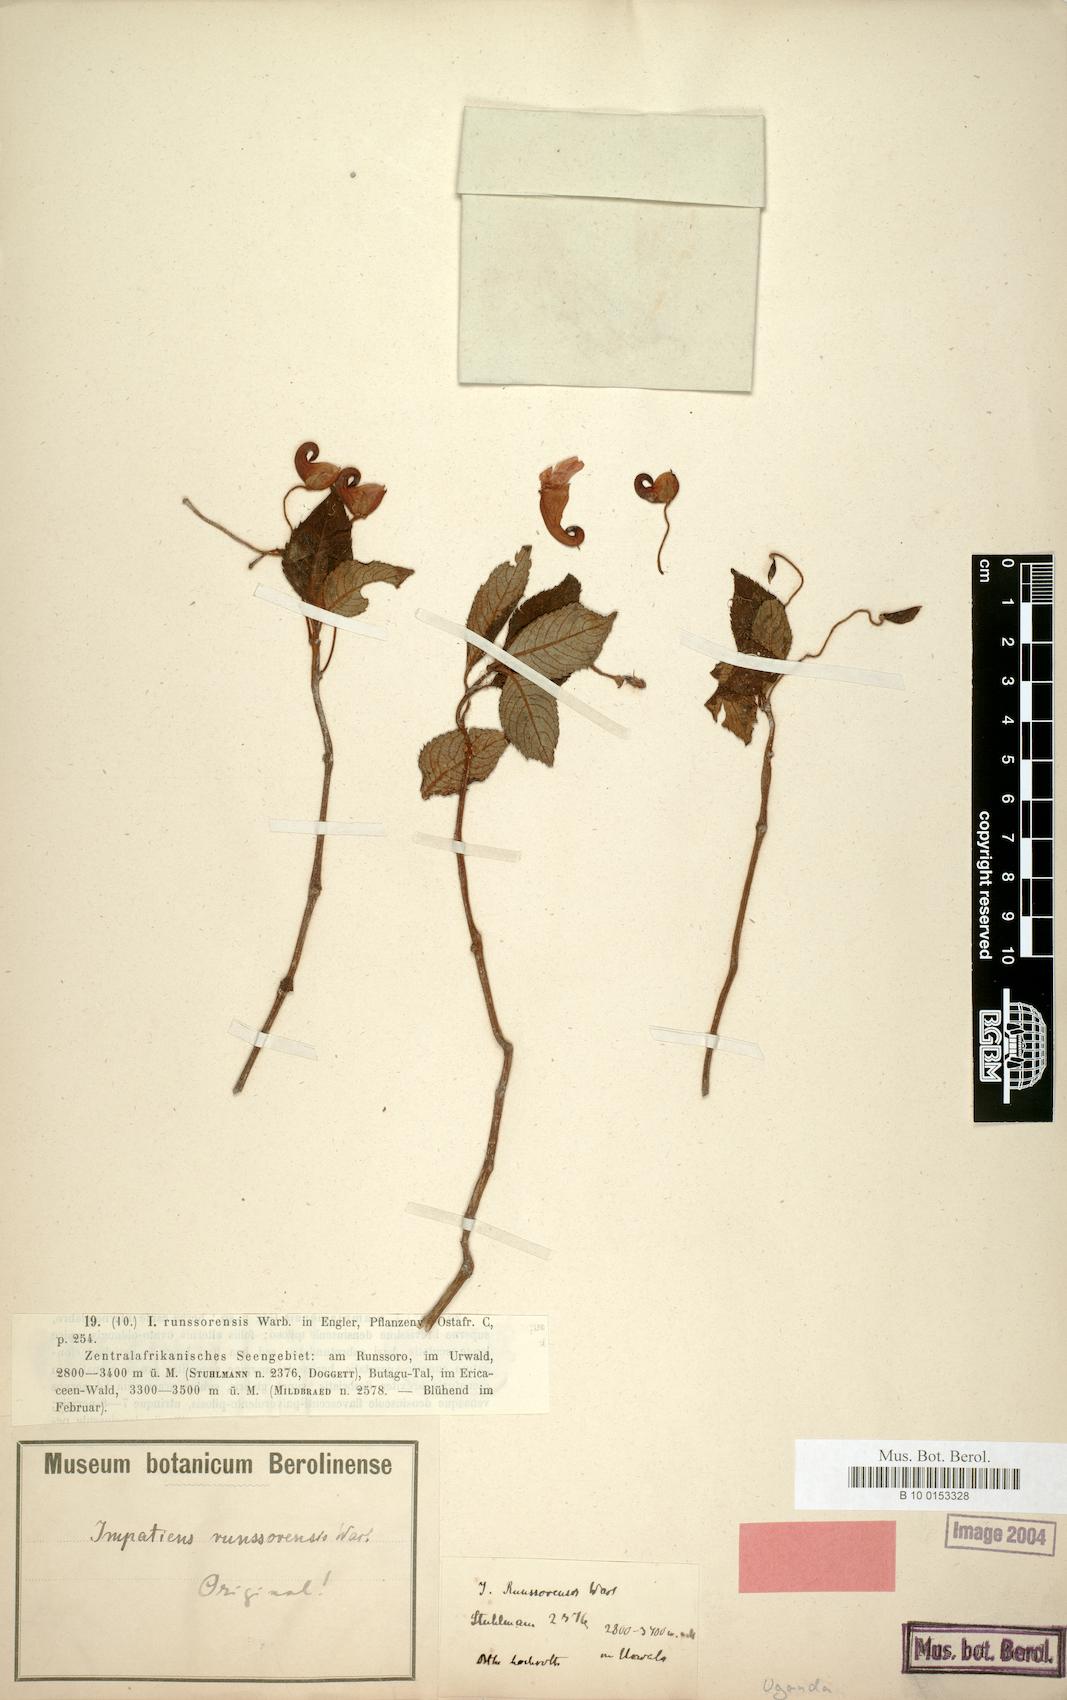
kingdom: Plantae
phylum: Tracheophyta
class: Magnoliopsida
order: Ericales
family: Balsaminaceae
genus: Impatiens
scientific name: Impatiens runssorensis
